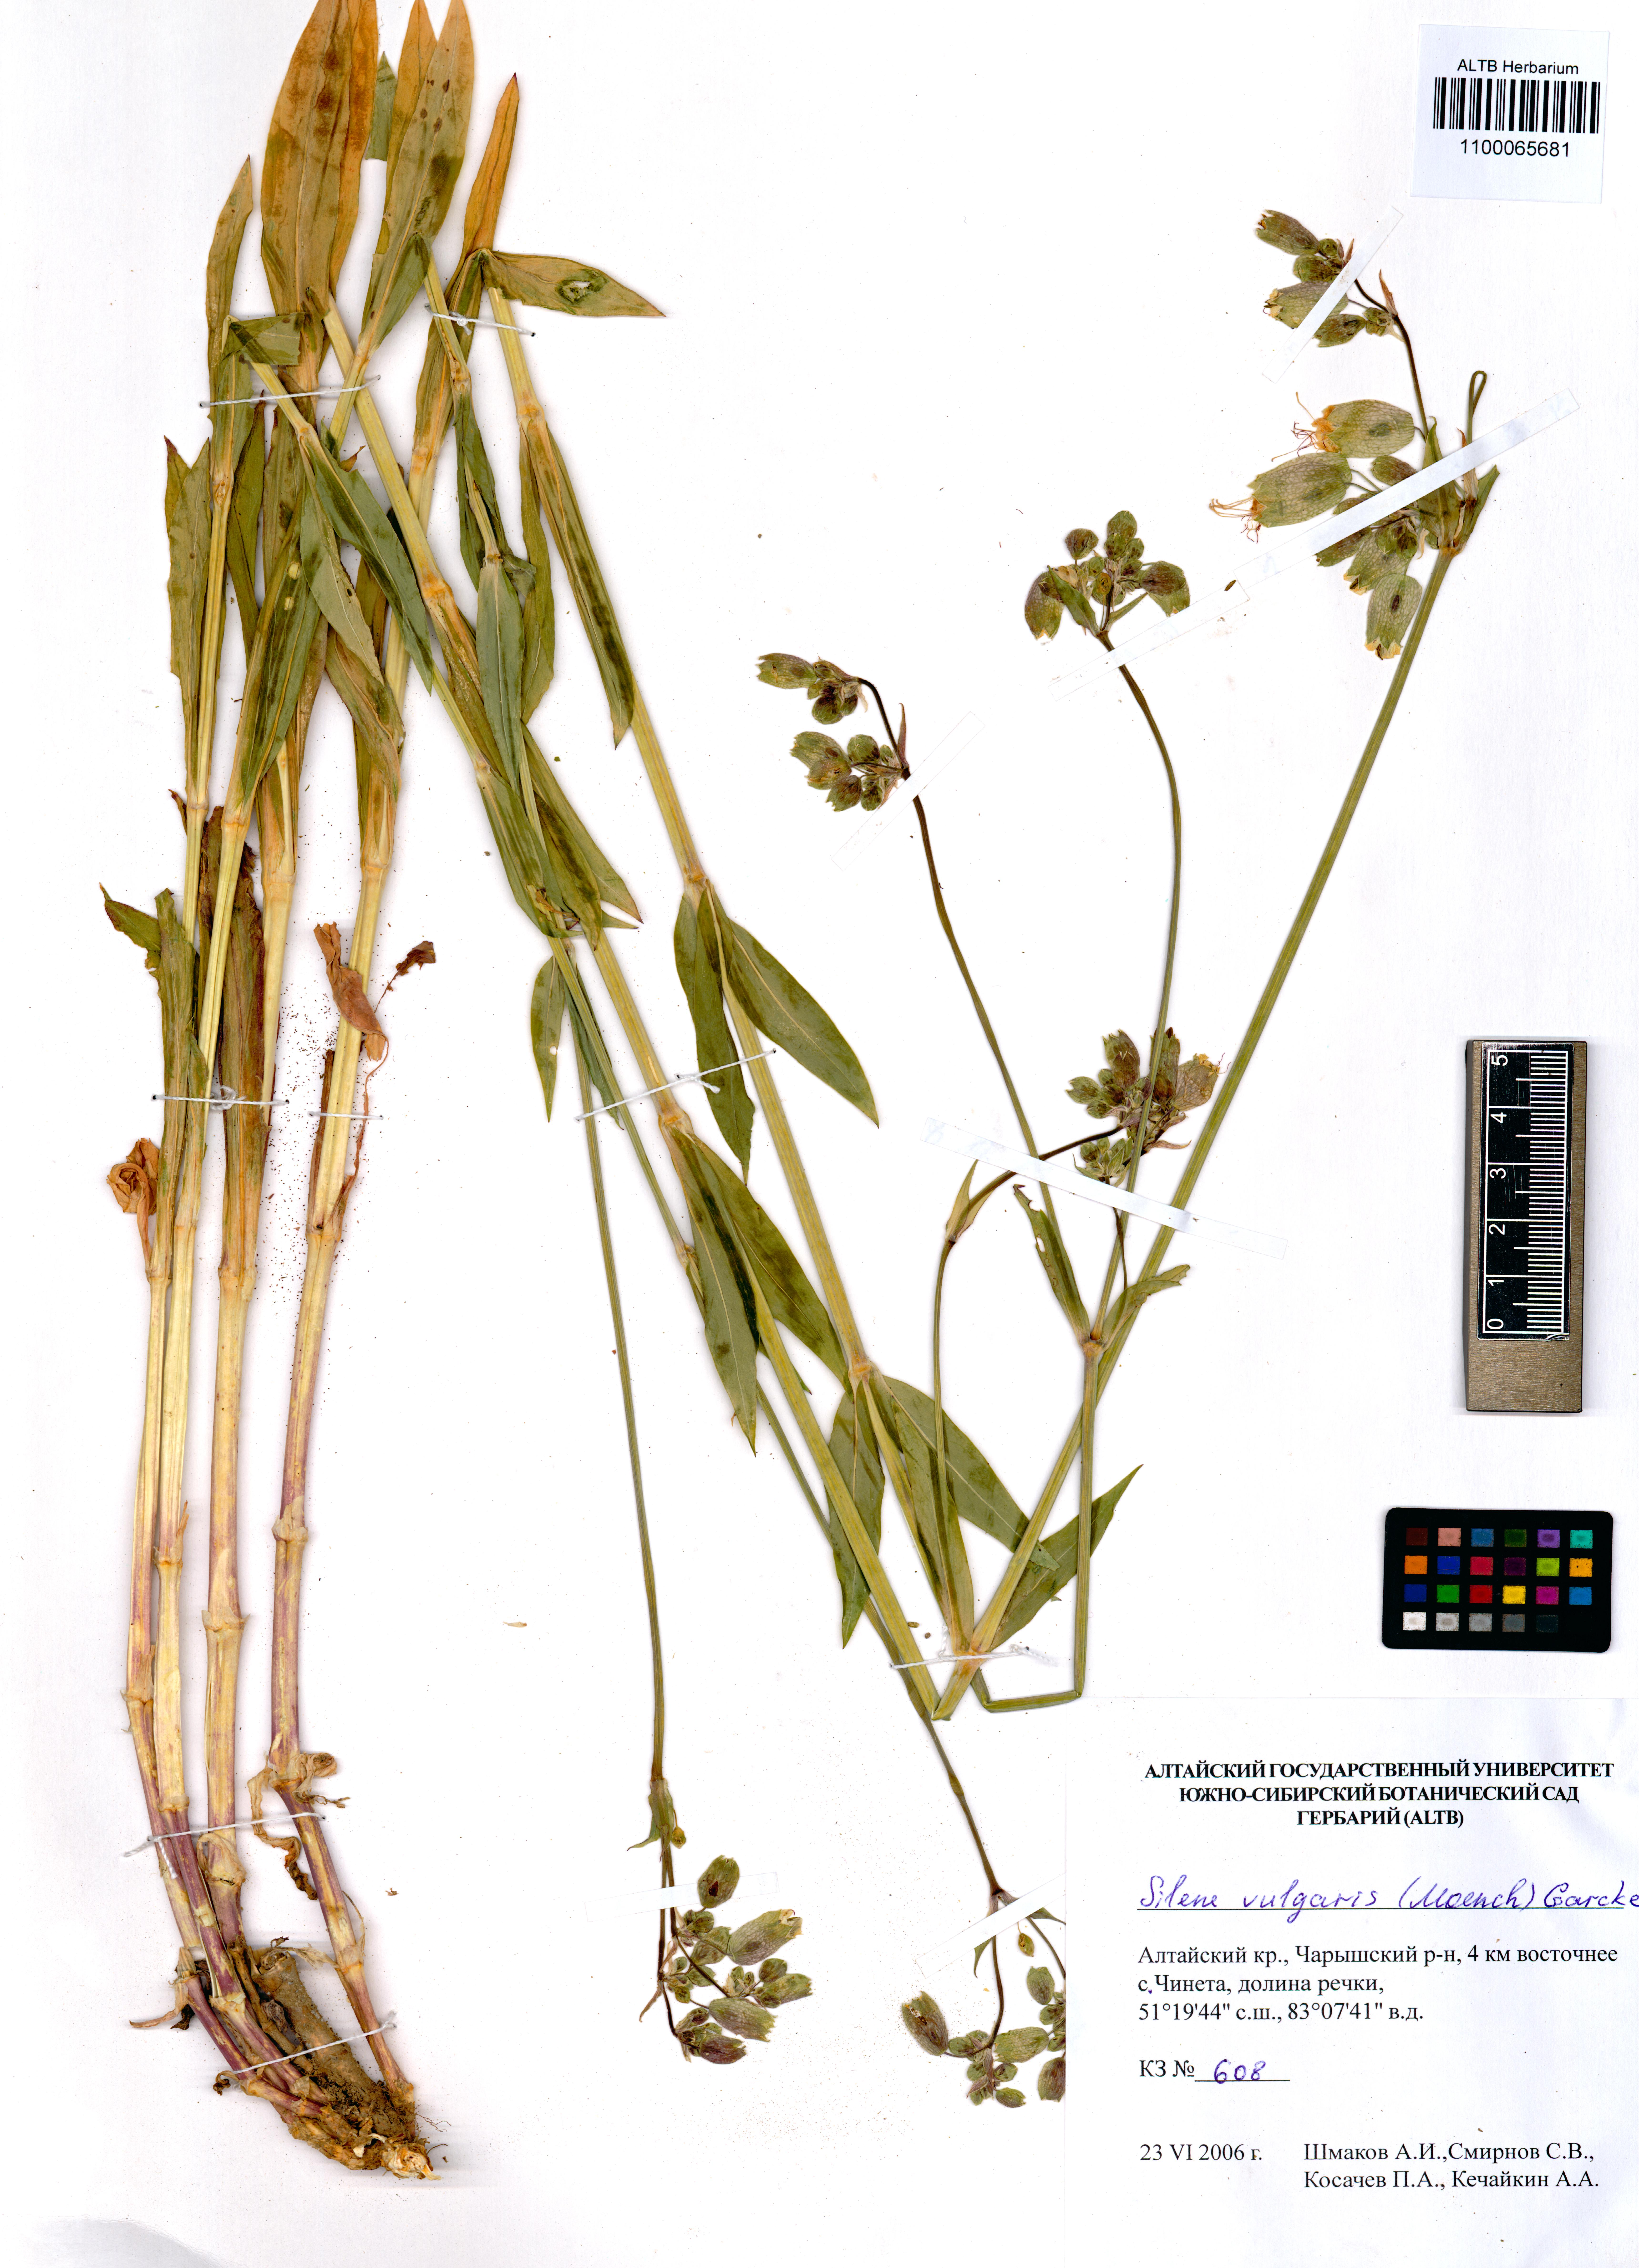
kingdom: Plantae
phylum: Tracheophyta
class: Magnoliopsida
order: Caryophyllales
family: Caryophyllaceae
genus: Silene
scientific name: Silene vulgaris
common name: Bladder campion
